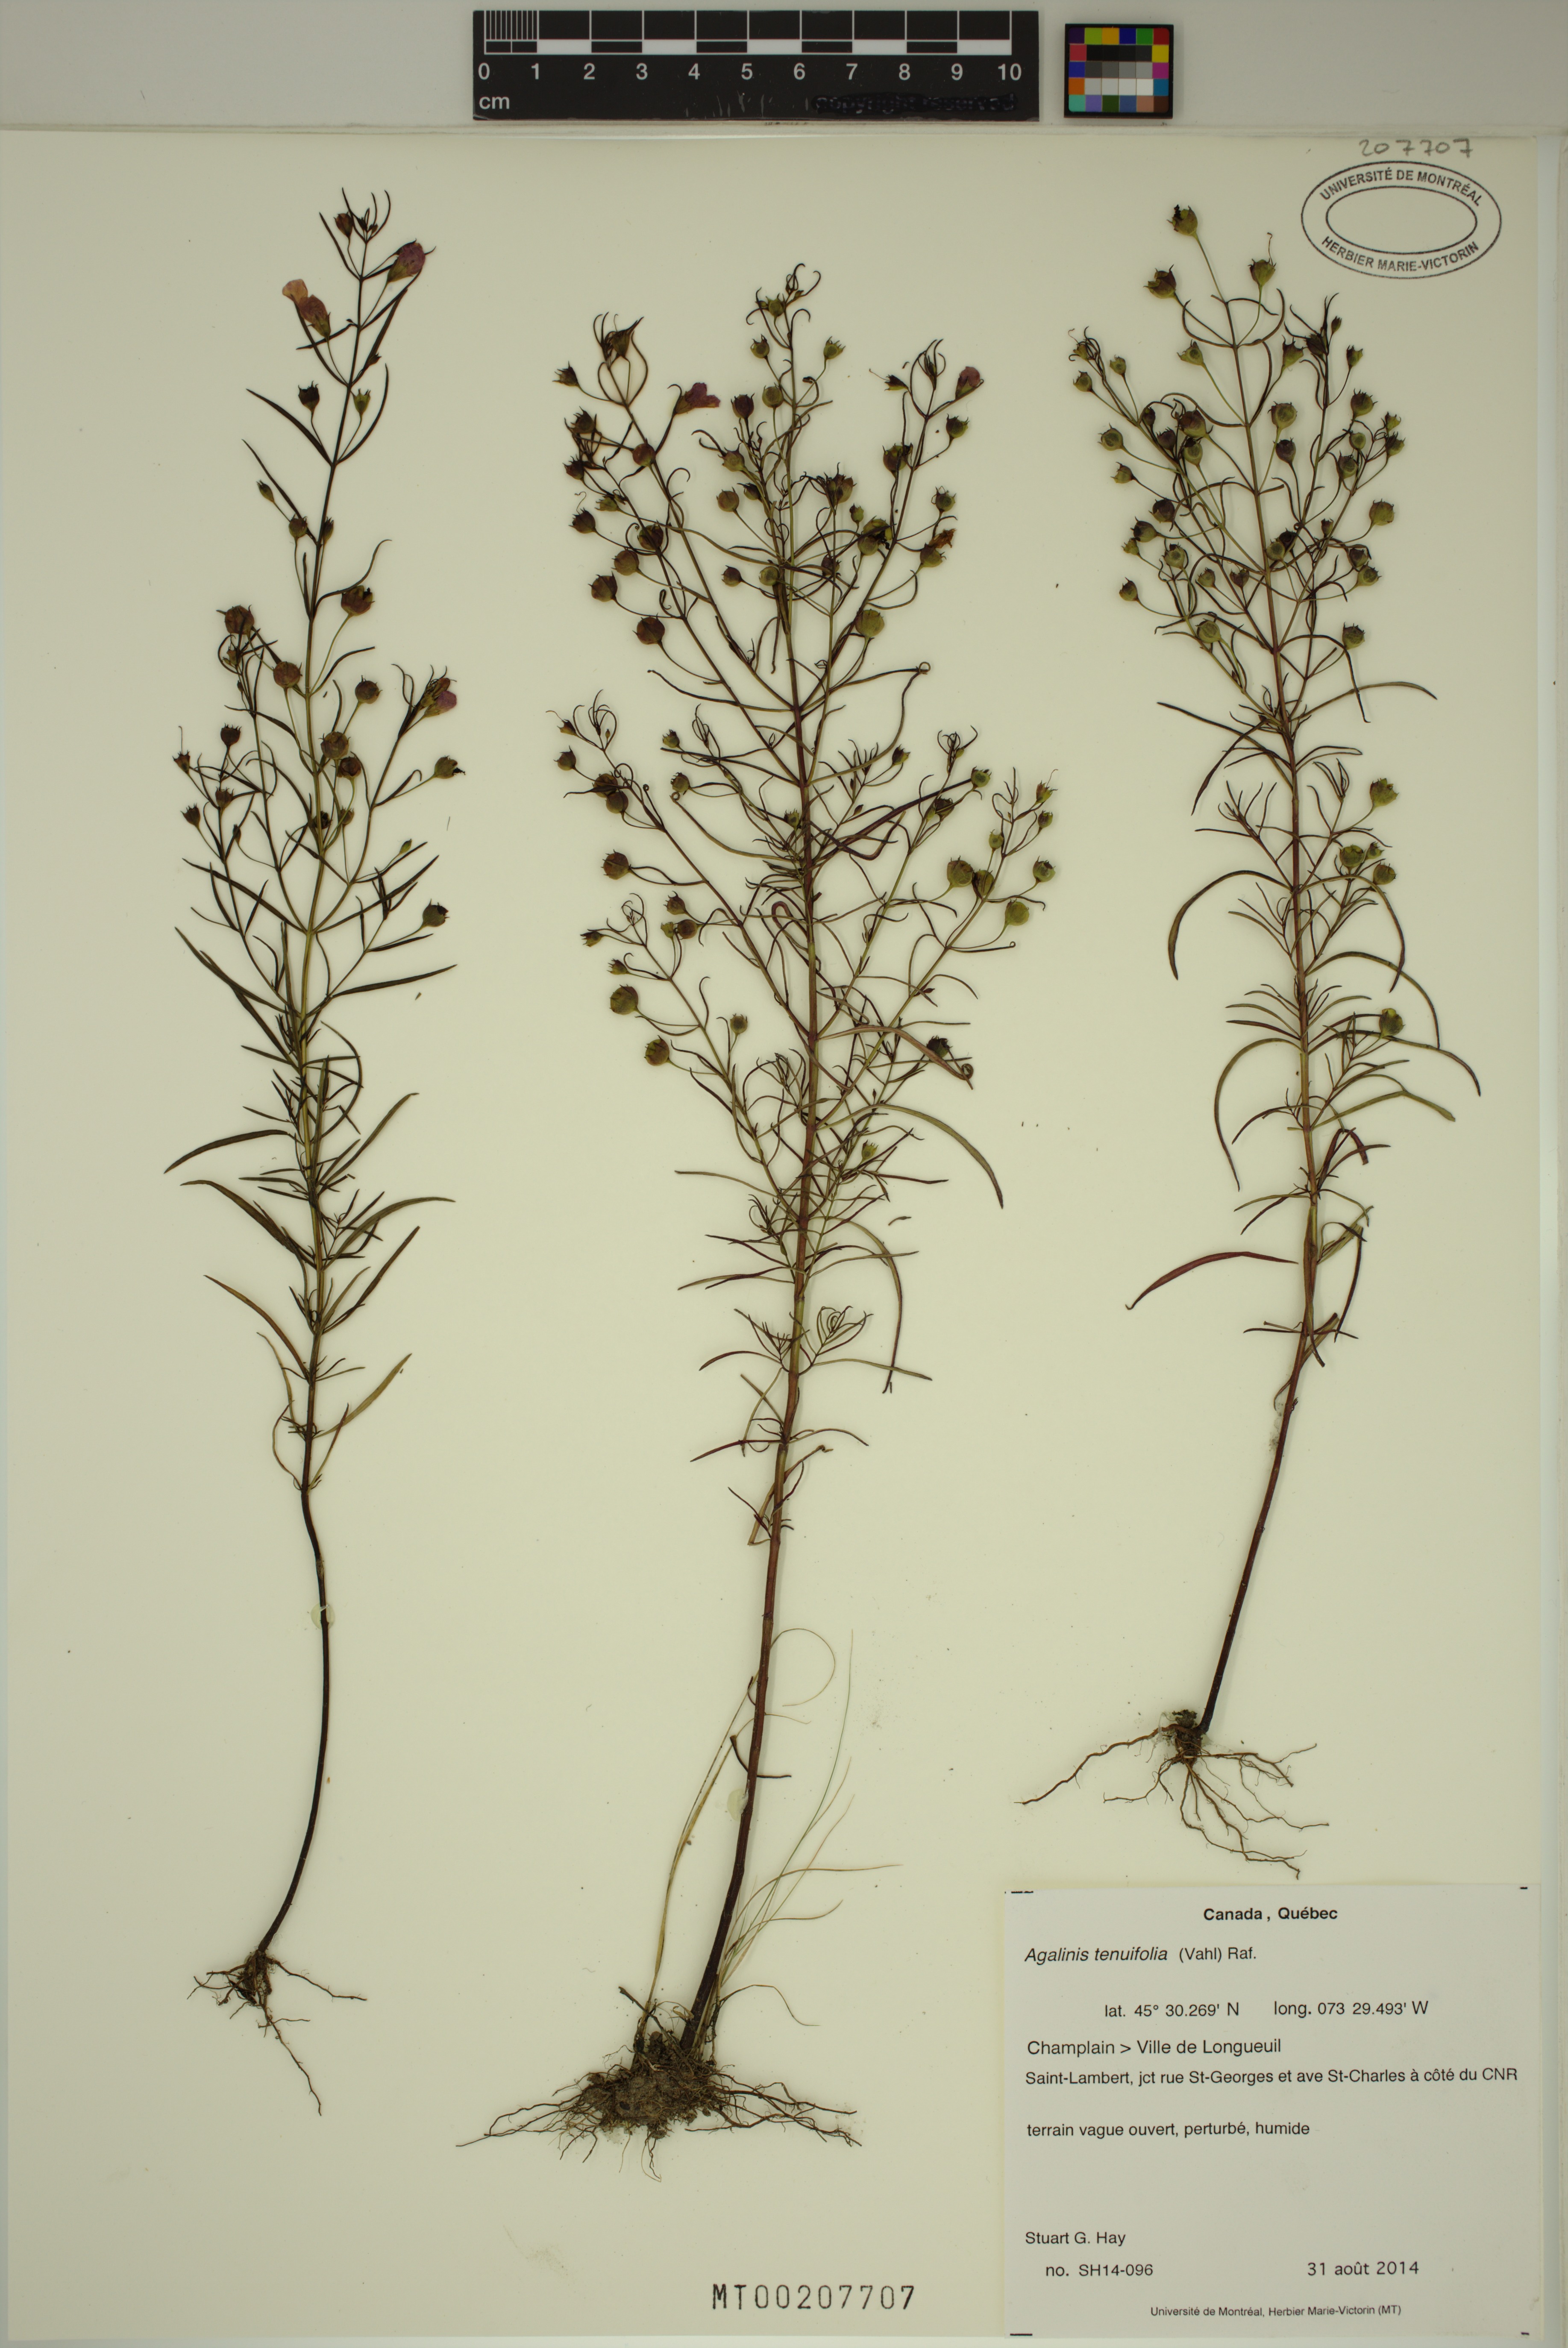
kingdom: Plantae
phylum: Tracheophyta
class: Magnoliopsida
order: Lamiales
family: Orobanchaceae
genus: Agalinis
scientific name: Agalinis tenuifolia
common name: Slender agalinis
